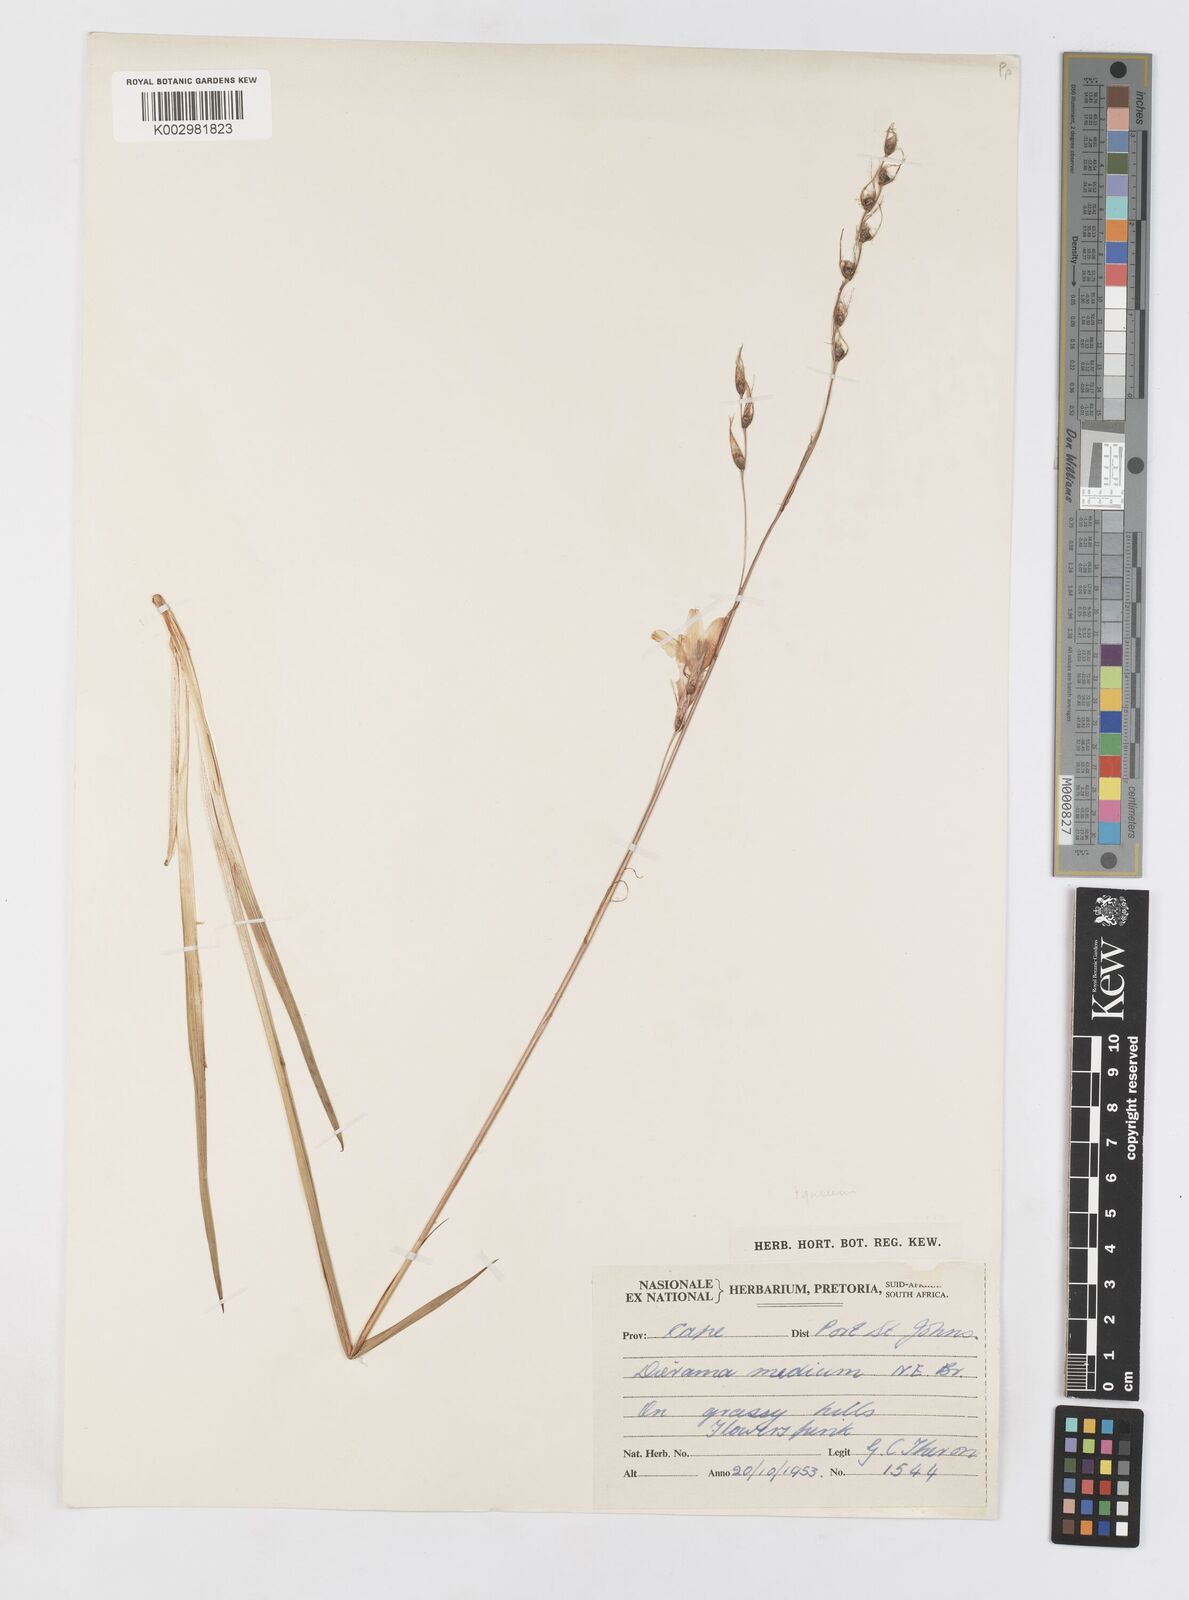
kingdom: Plantae
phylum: Tracheophyta
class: Liliopsida
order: Asparagales
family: Iridaceae
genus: Dierama
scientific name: Dierama igneum
